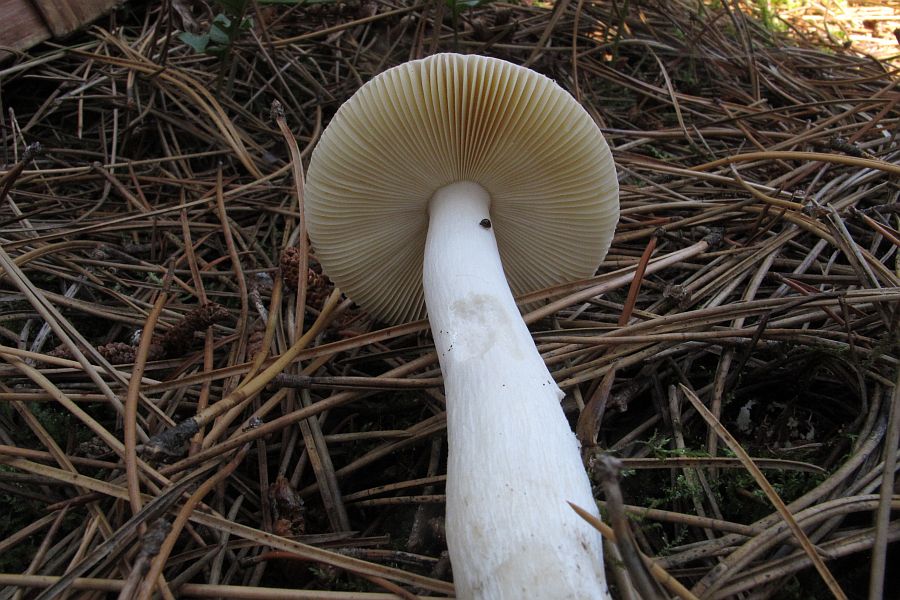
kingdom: Fungi
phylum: Basidiomycota
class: Agaricomycetes
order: Russulales
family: Russulaceae
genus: Russula
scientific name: Russula caerulea
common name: puklet skørhat
